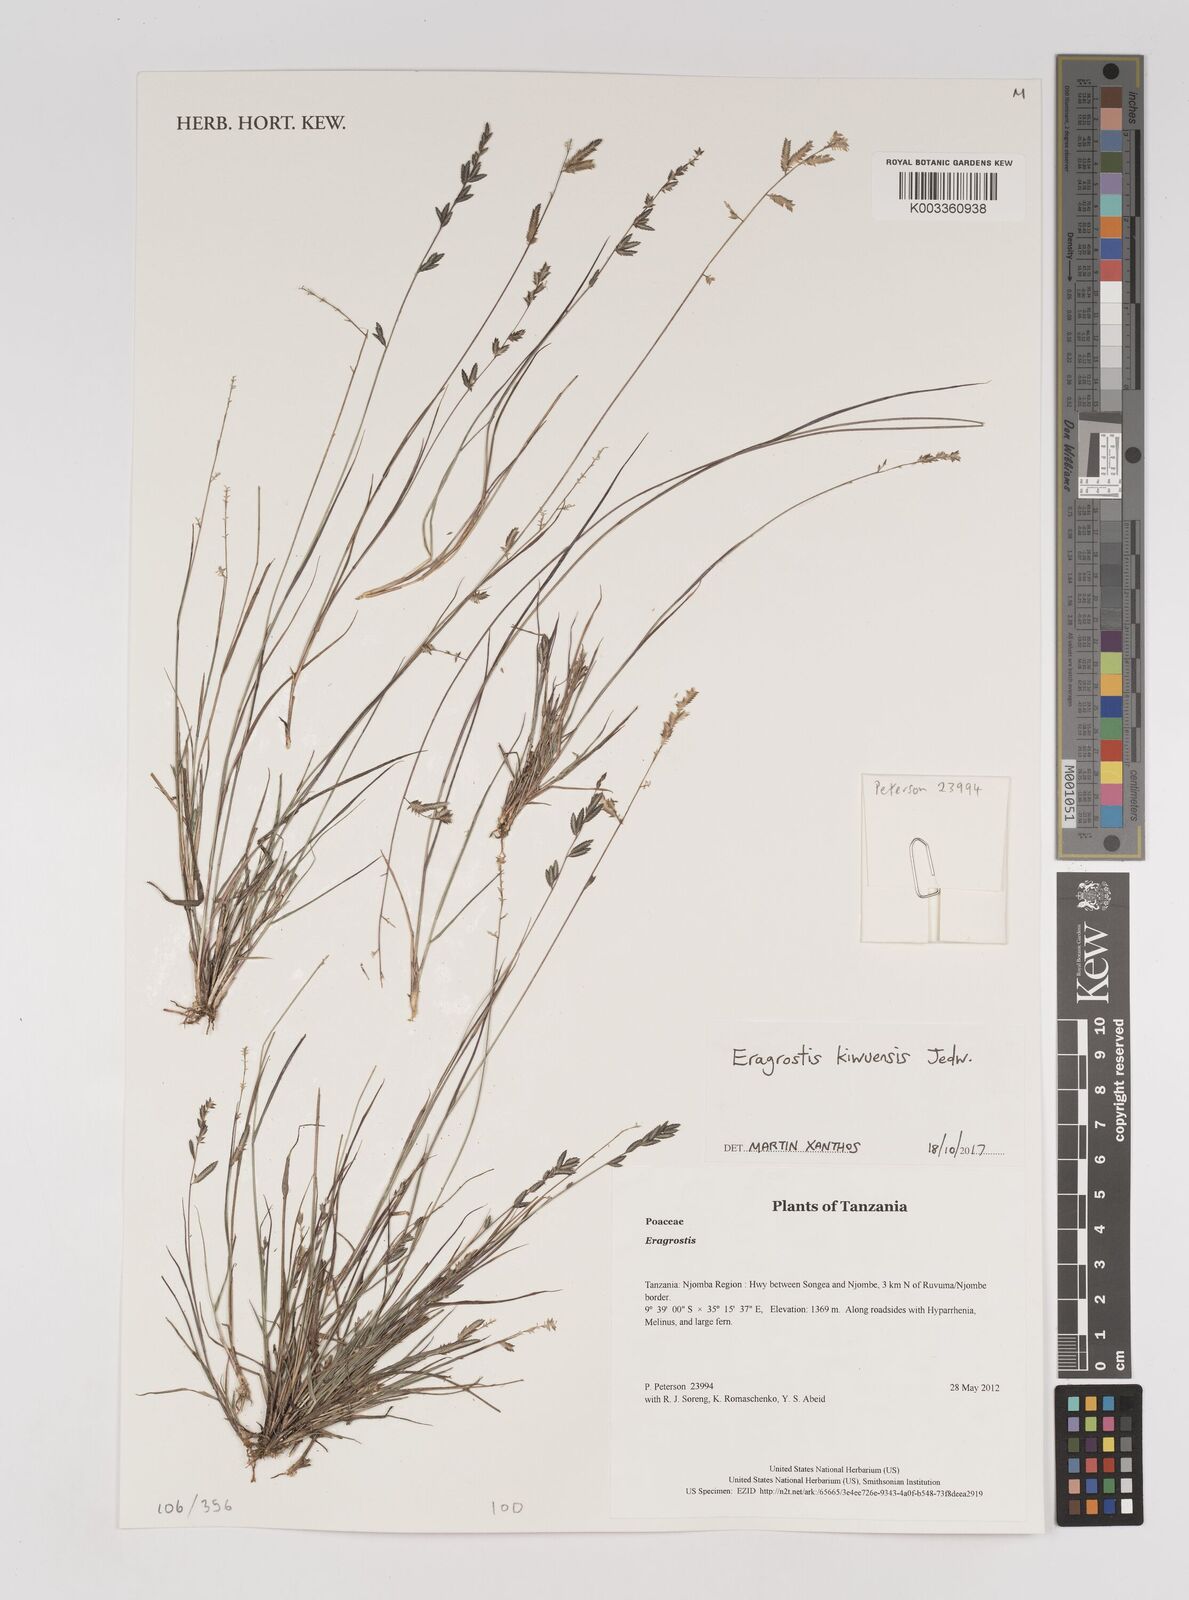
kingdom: Plantae
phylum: Tracheophyta
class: Liliopsida
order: Poales
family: Poaceae
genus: Eragrostis
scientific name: Eragrostis schweinfurthii
